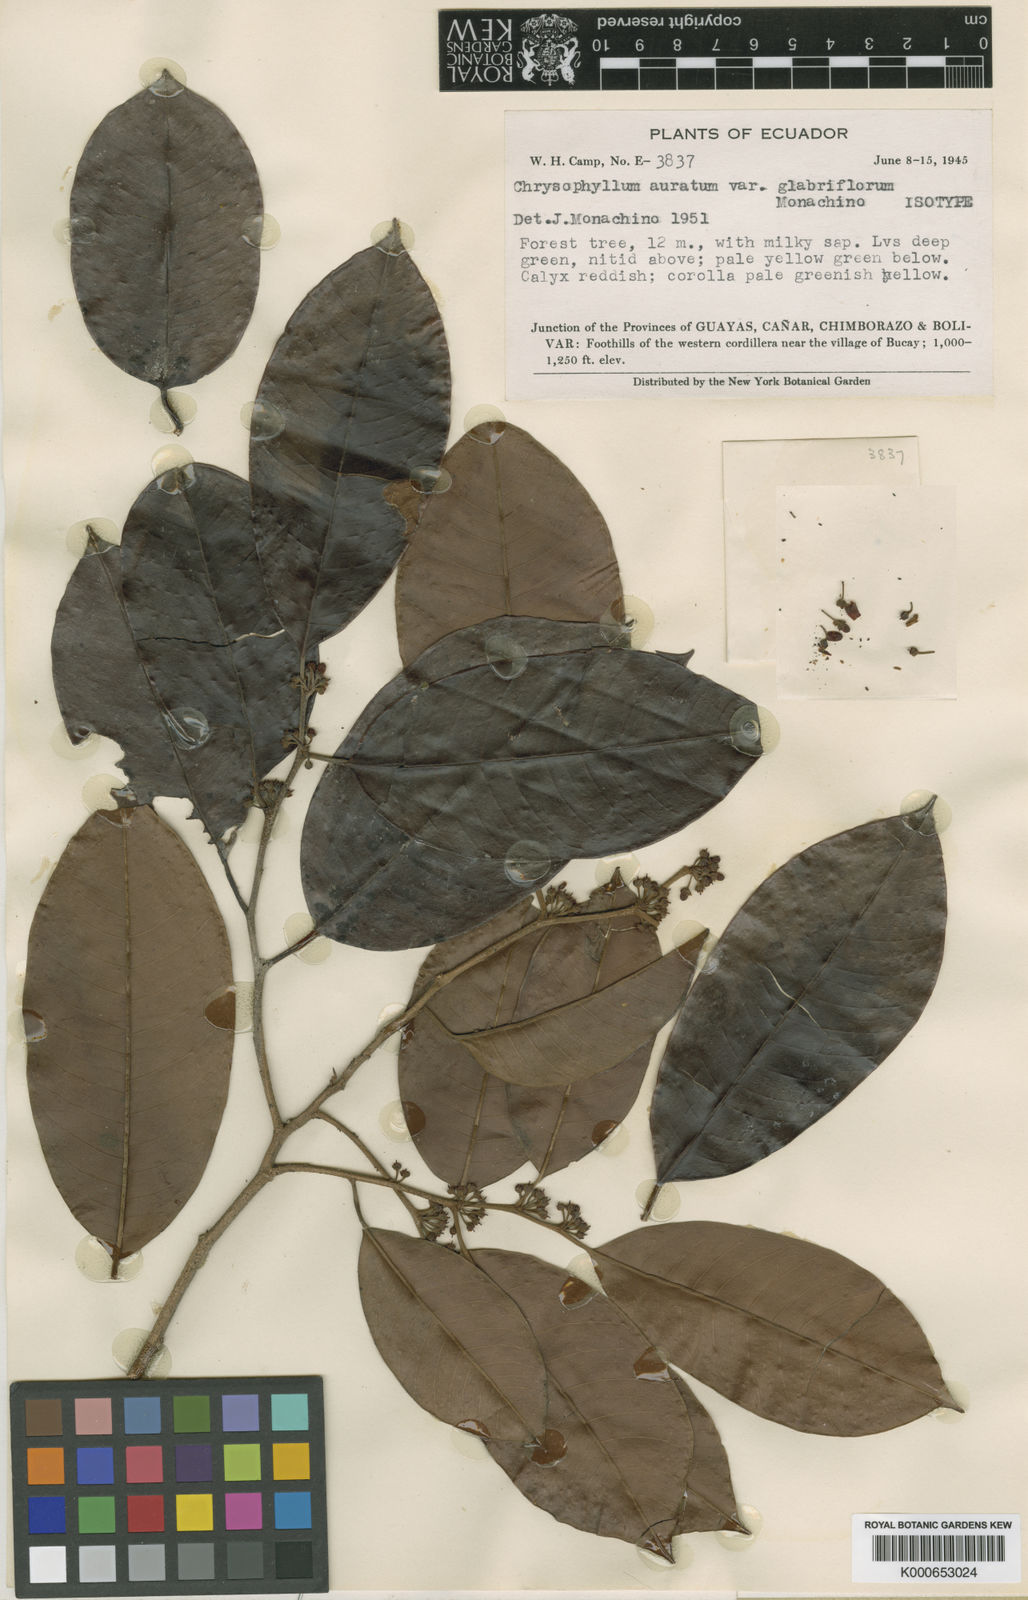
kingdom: Plantae
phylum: Tracheophyta
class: Magnoliopsida
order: Ericales
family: Sapotaceae
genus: Chrysophyllum
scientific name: Chrysophyllum argenteum
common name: Smooth star apple
